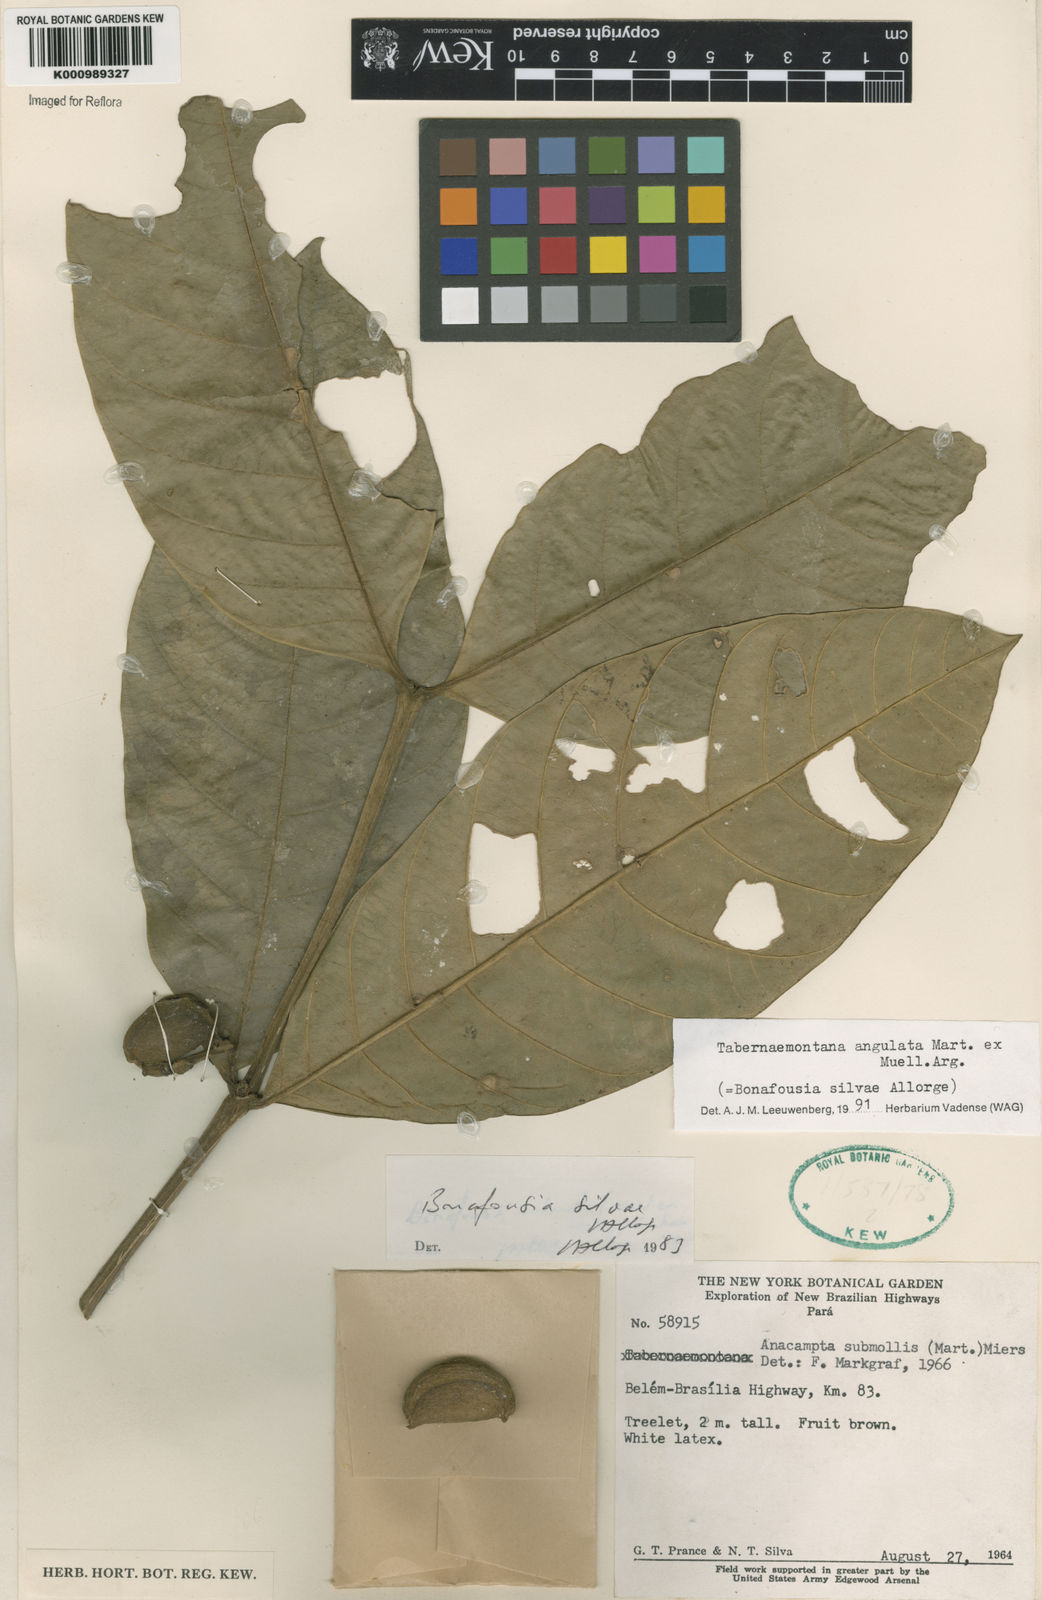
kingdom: Plantae
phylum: Tracheophyta
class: Magnoliopsida
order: Gentianales
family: Apocynaceae
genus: Tabernaemontana
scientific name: Tabernaemontana
